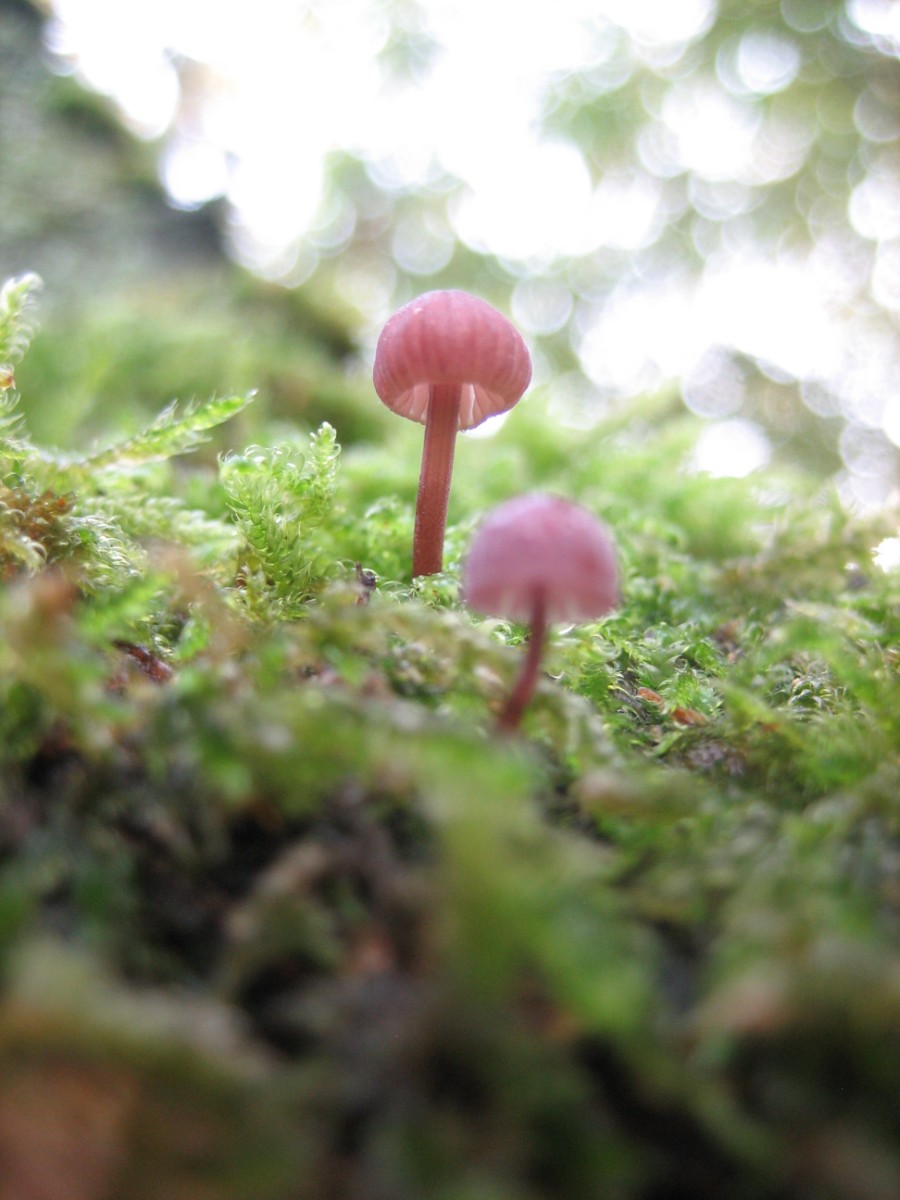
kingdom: Fungi
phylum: Basidiomycota
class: Agaricomycetes
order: Agaricales
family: Mycenaceae
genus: Mycena
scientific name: Mycena meliigena
